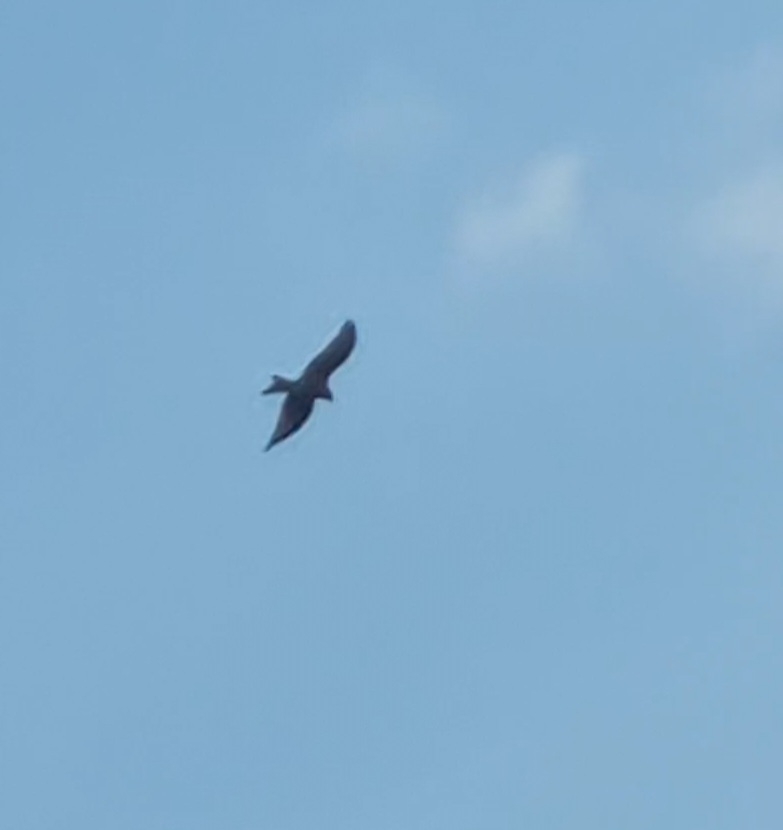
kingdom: Animalia
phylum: Chordata
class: Aves
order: Accipitriformes
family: Accipitridae
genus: Milvus
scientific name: Milvus milvus
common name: Rød glente
